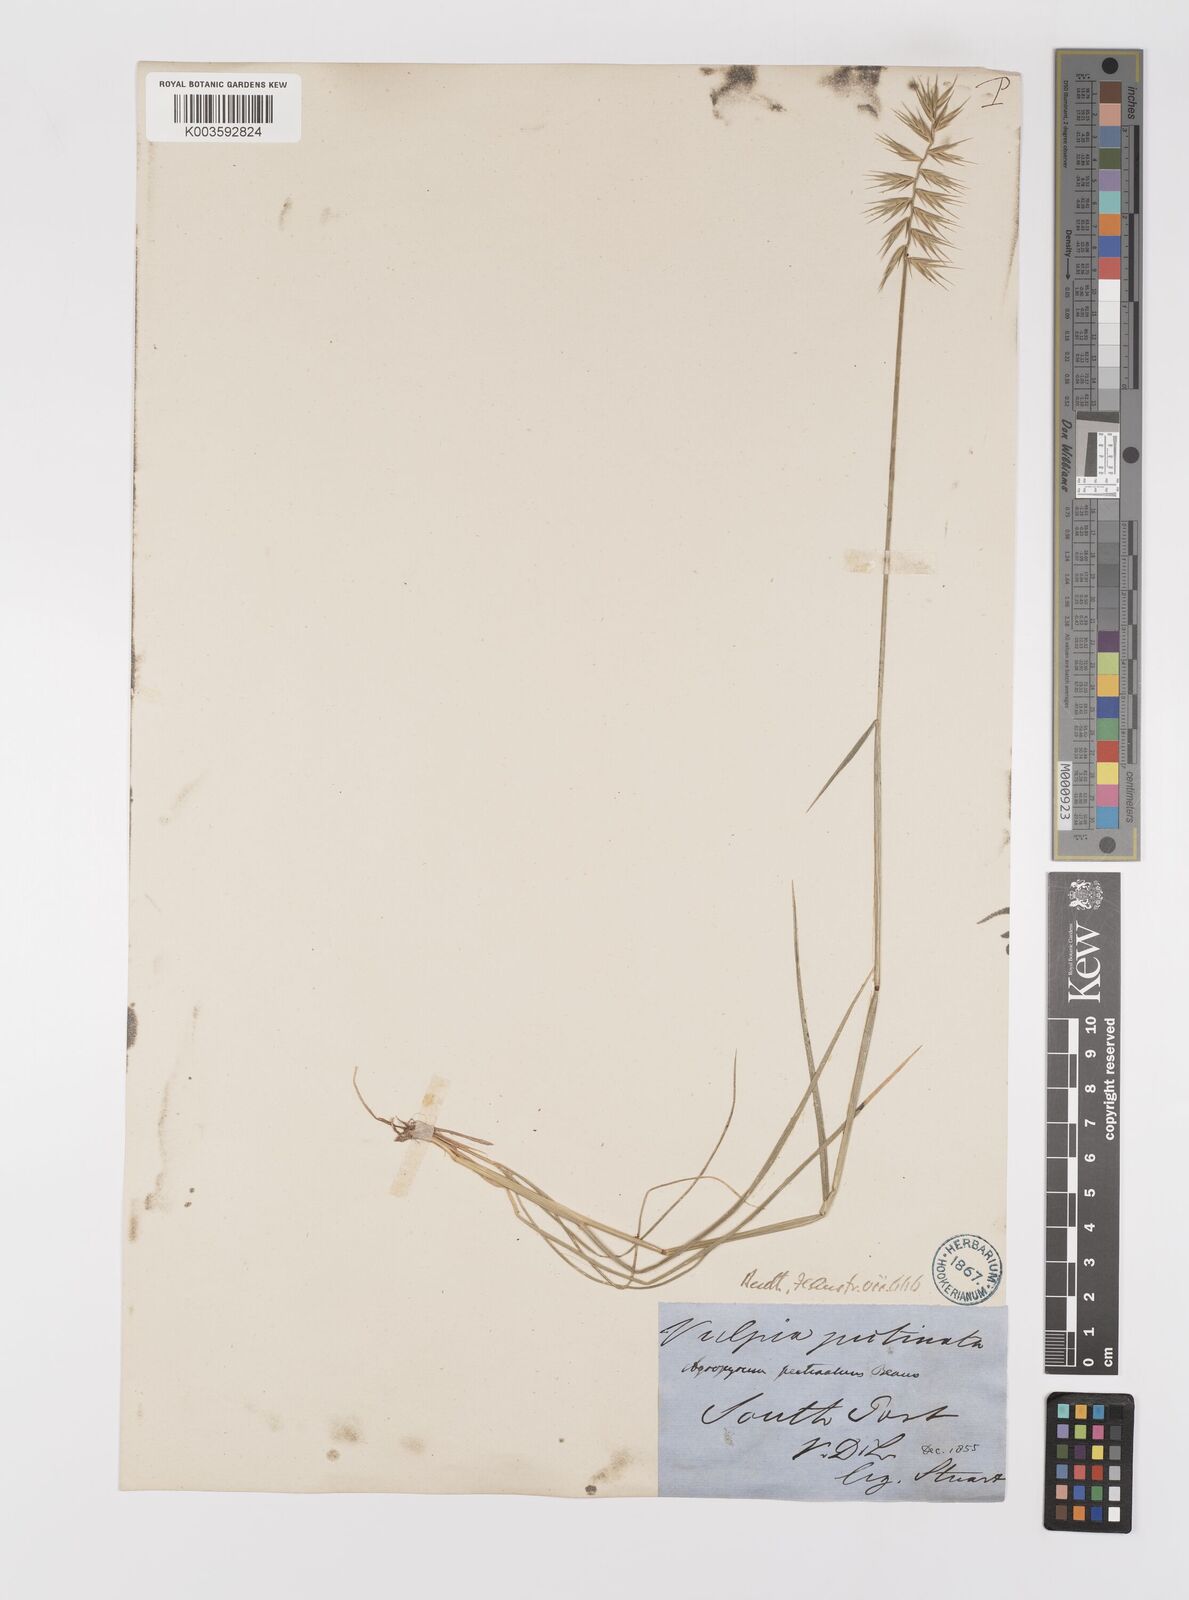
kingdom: Plantae
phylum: Tracheophyta
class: Liliopsida
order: Poales
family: Poaceae
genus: Australopyrum
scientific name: Australopyrum pectinatum
